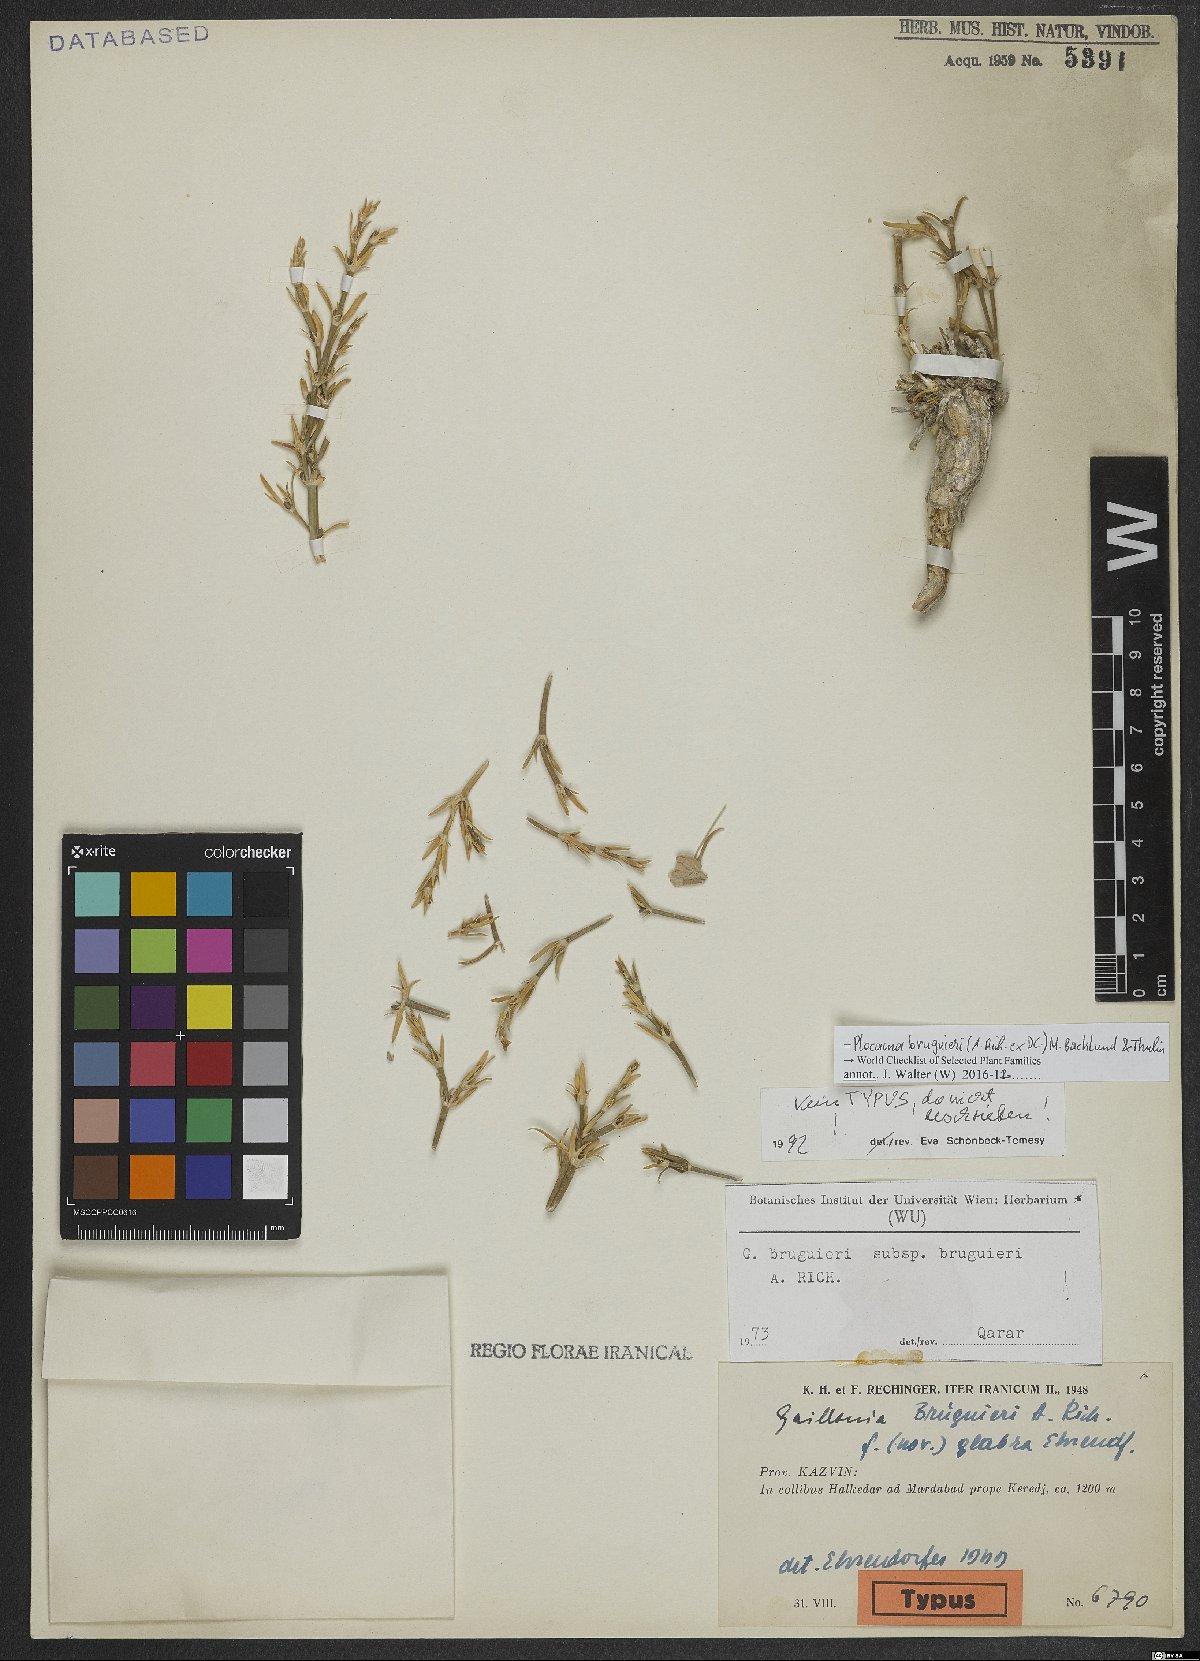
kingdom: Plantae
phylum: Tracheophyta
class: Magnoliopsida
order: Gentianales
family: Rubiaceae
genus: Plocama
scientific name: Plocama bruguieri
